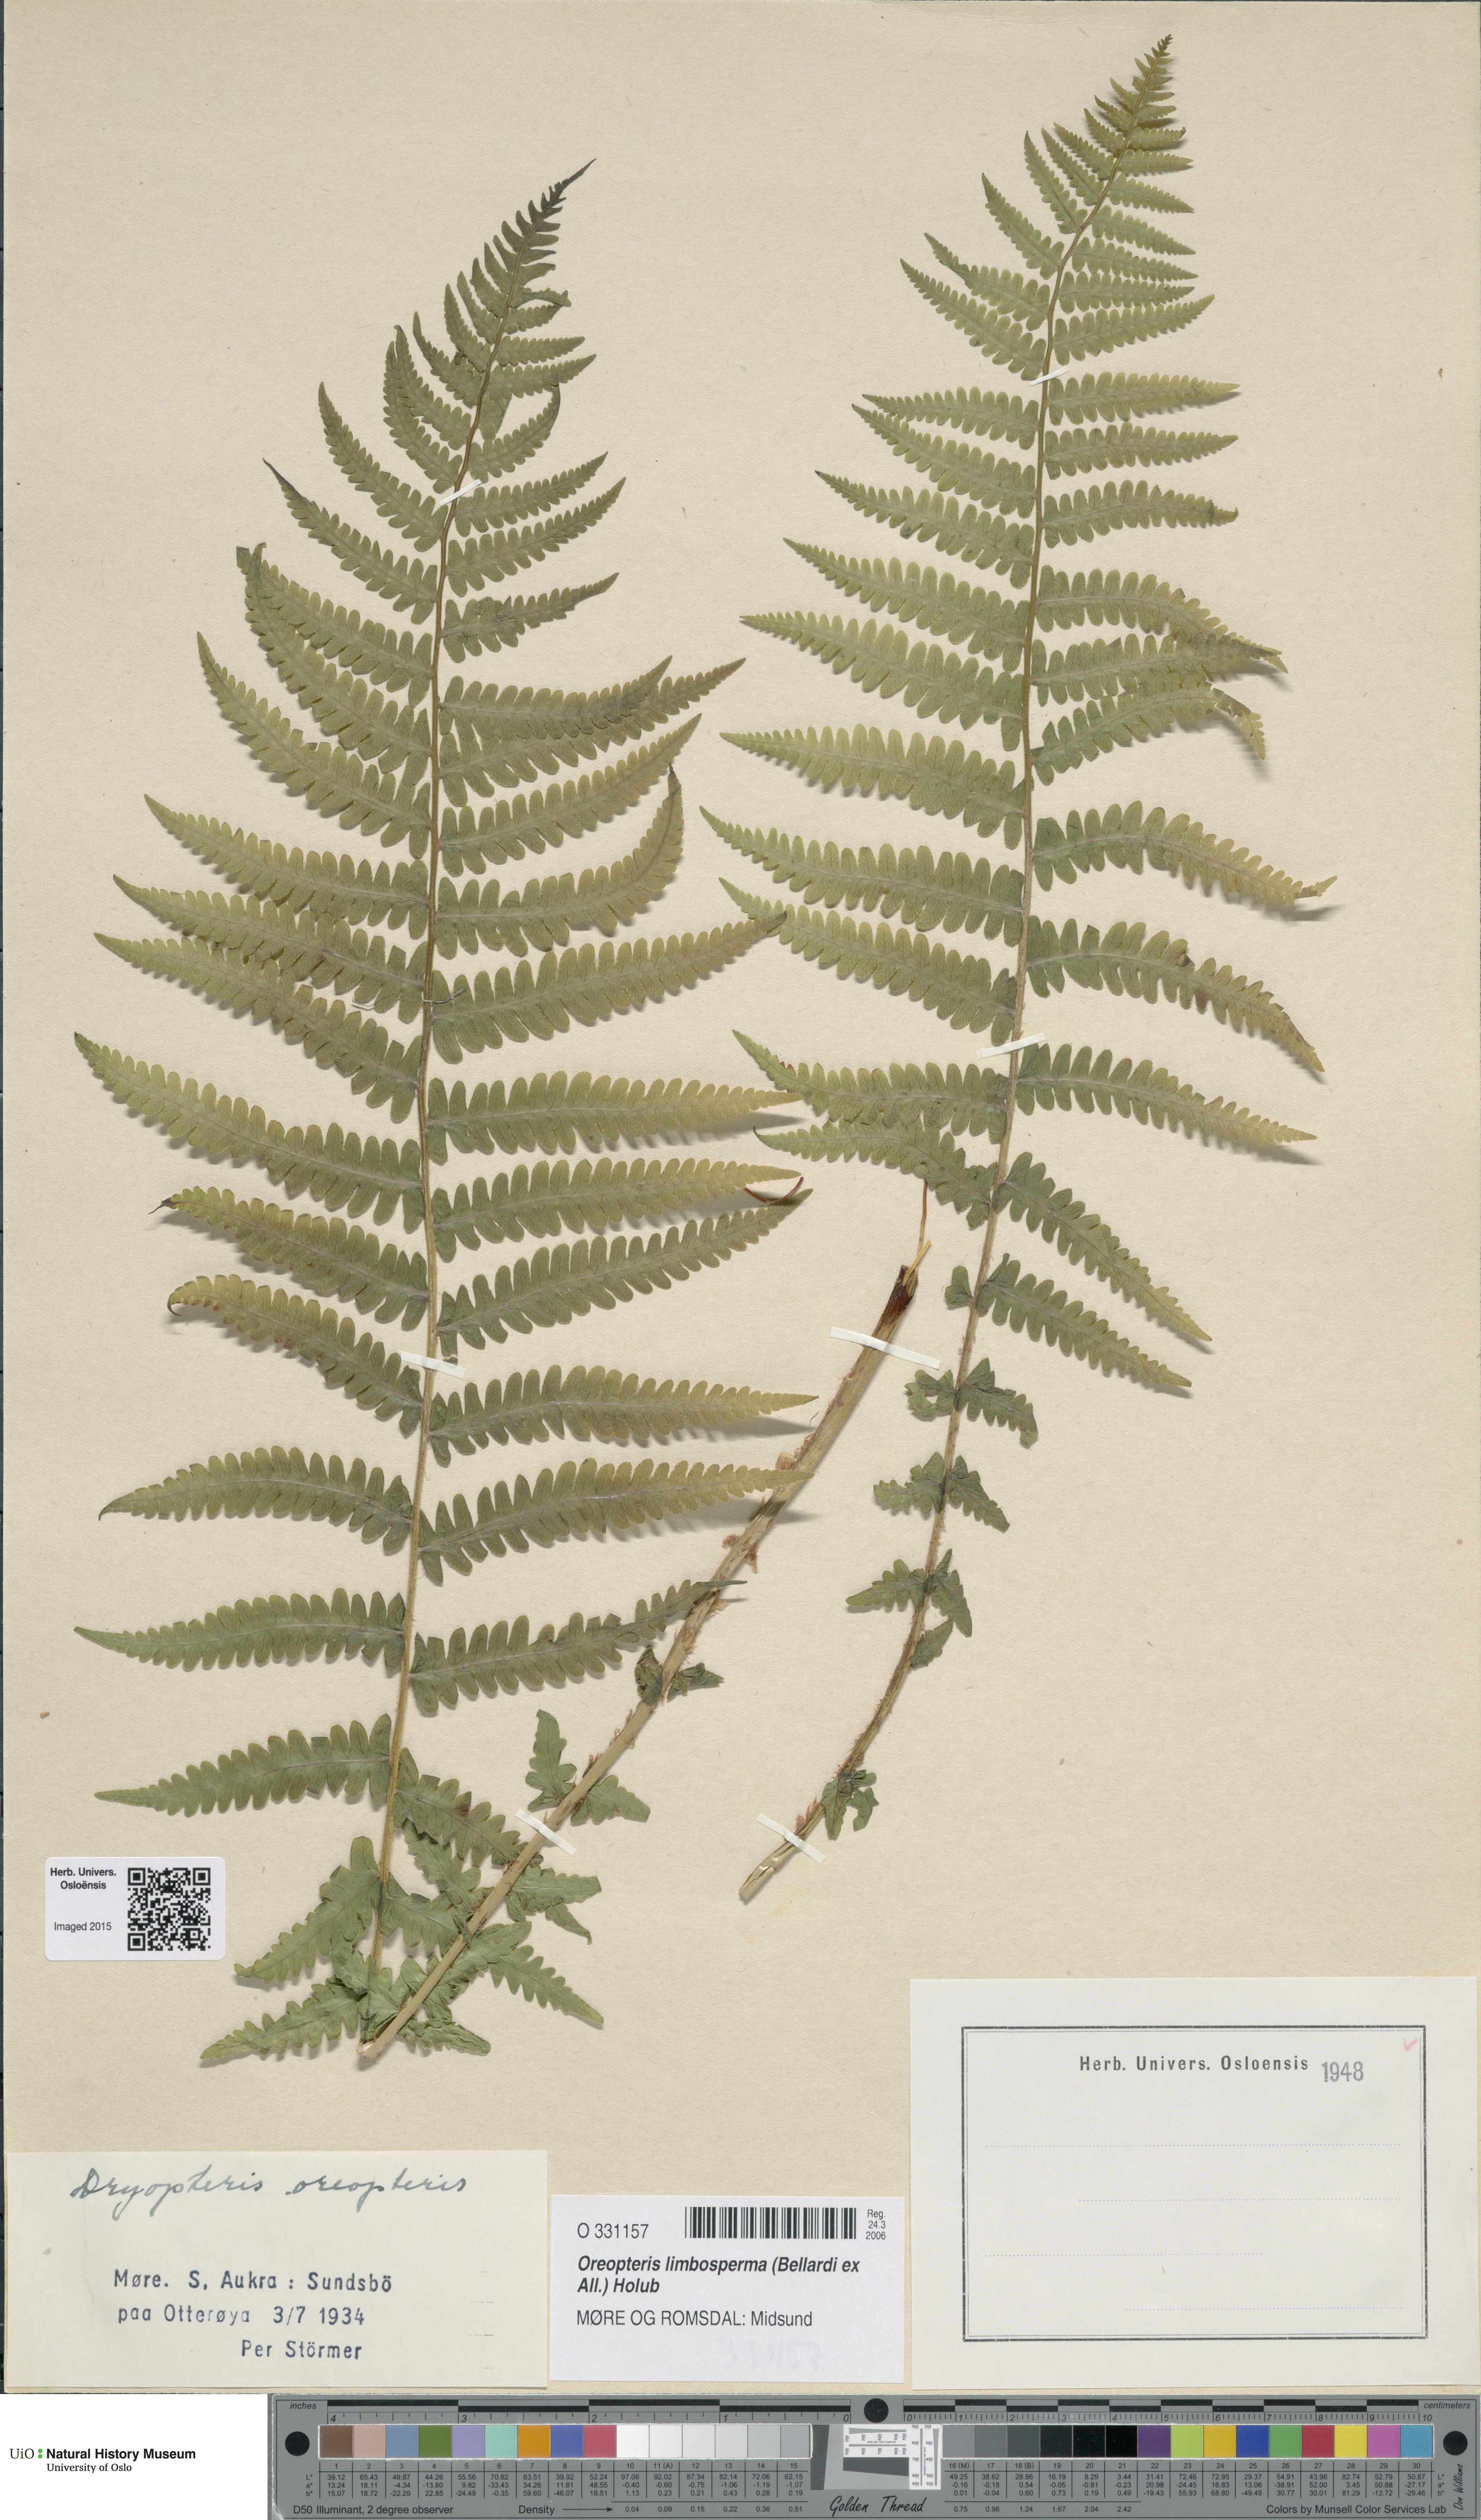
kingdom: Plantae
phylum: Tracheophyta
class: Polypodiopsida
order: Polypodiales
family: Thelypteridaceae
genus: Oreopteris
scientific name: Oreopteris limbosperma
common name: Lemon-scented fern
